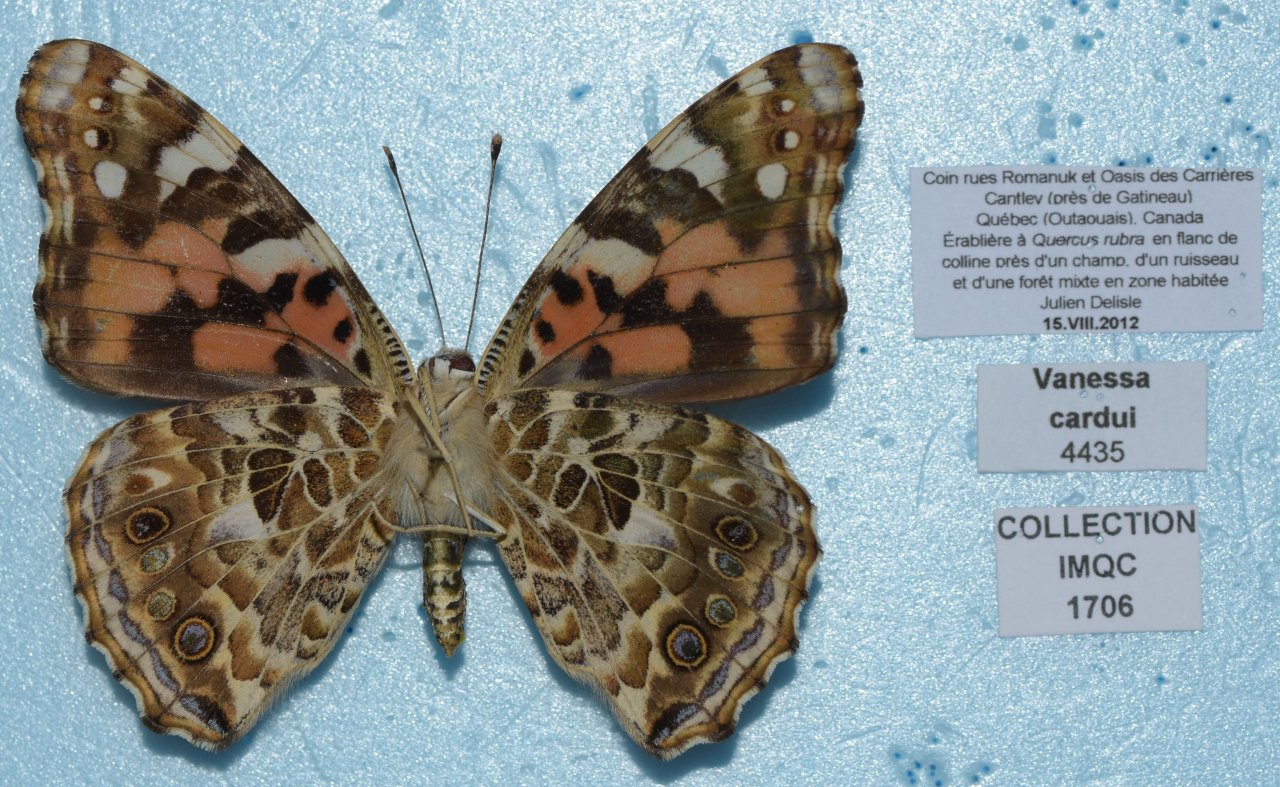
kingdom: Animalia
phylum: Arthropoda
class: Insecta
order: Lepidoptera
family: Nymphalidae
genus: Vanessa
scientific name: Vanessa cardui
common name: Painted Lady
